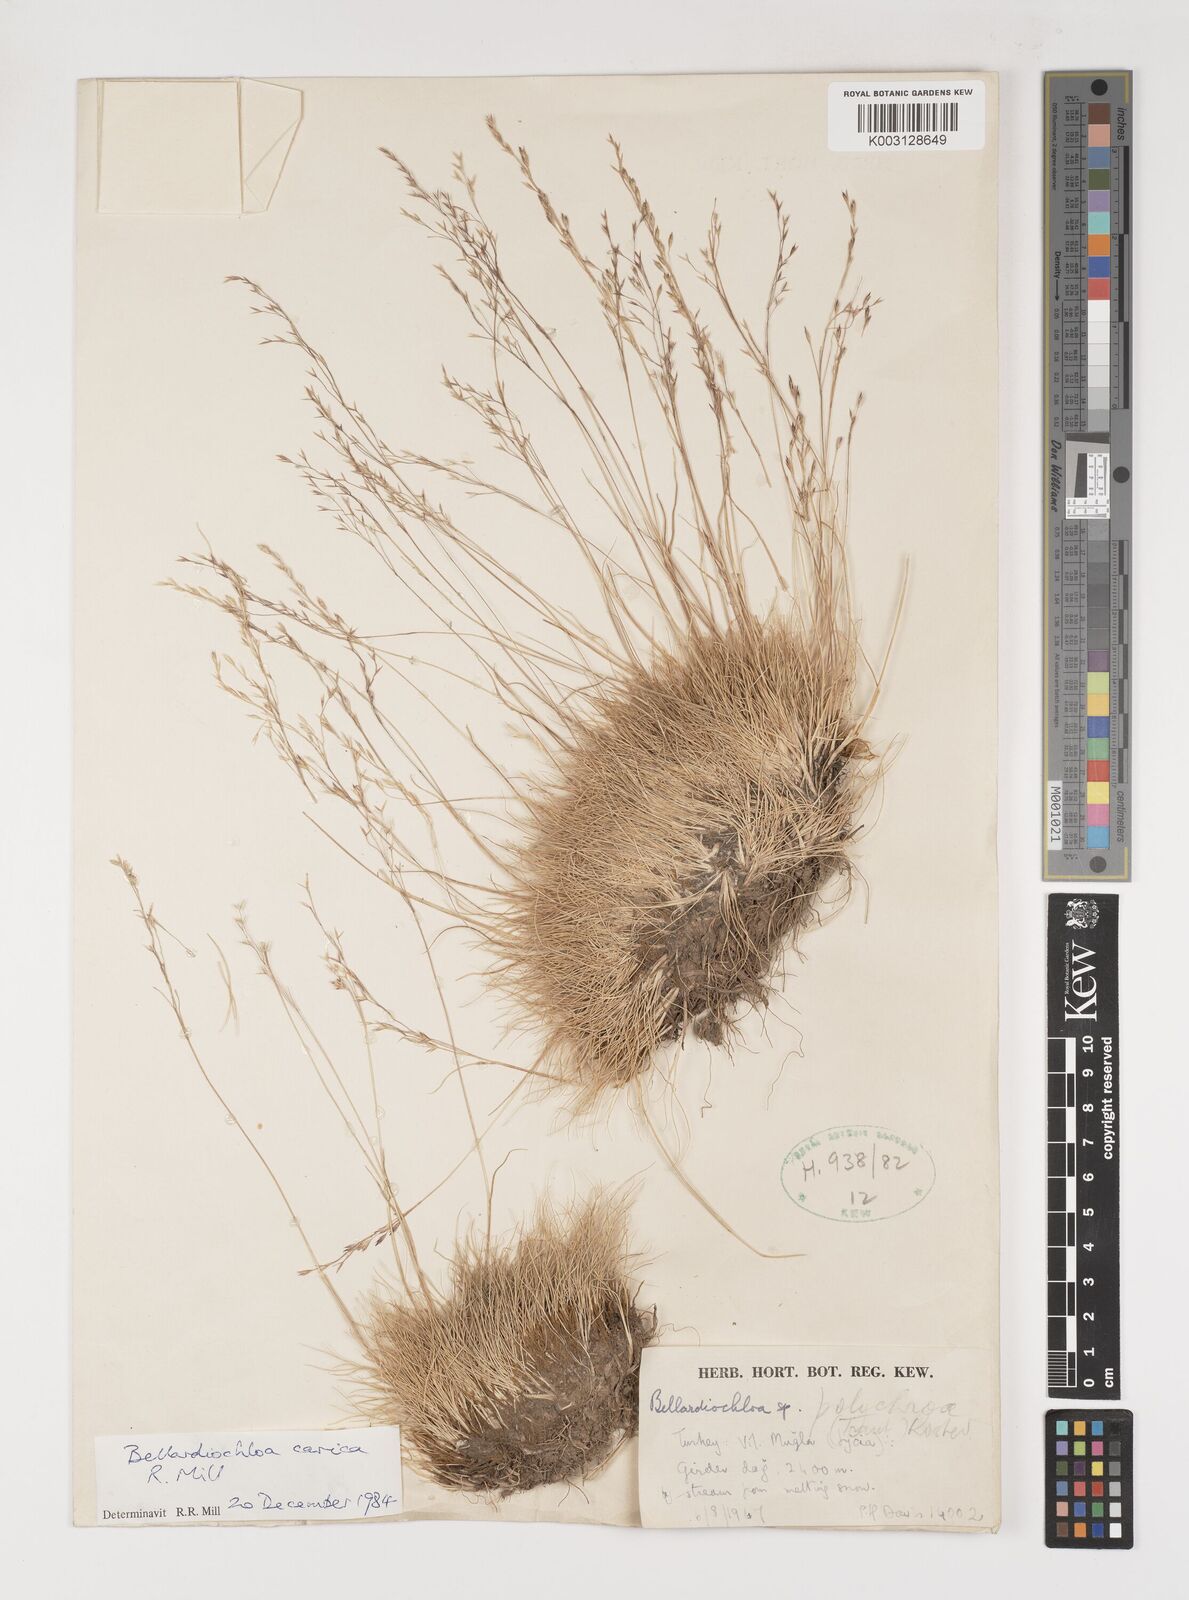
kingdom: Plantae
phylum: Tracheophyta
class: Liliopsida
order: Poales
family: Poaceae
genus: Poa
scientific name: Poa
